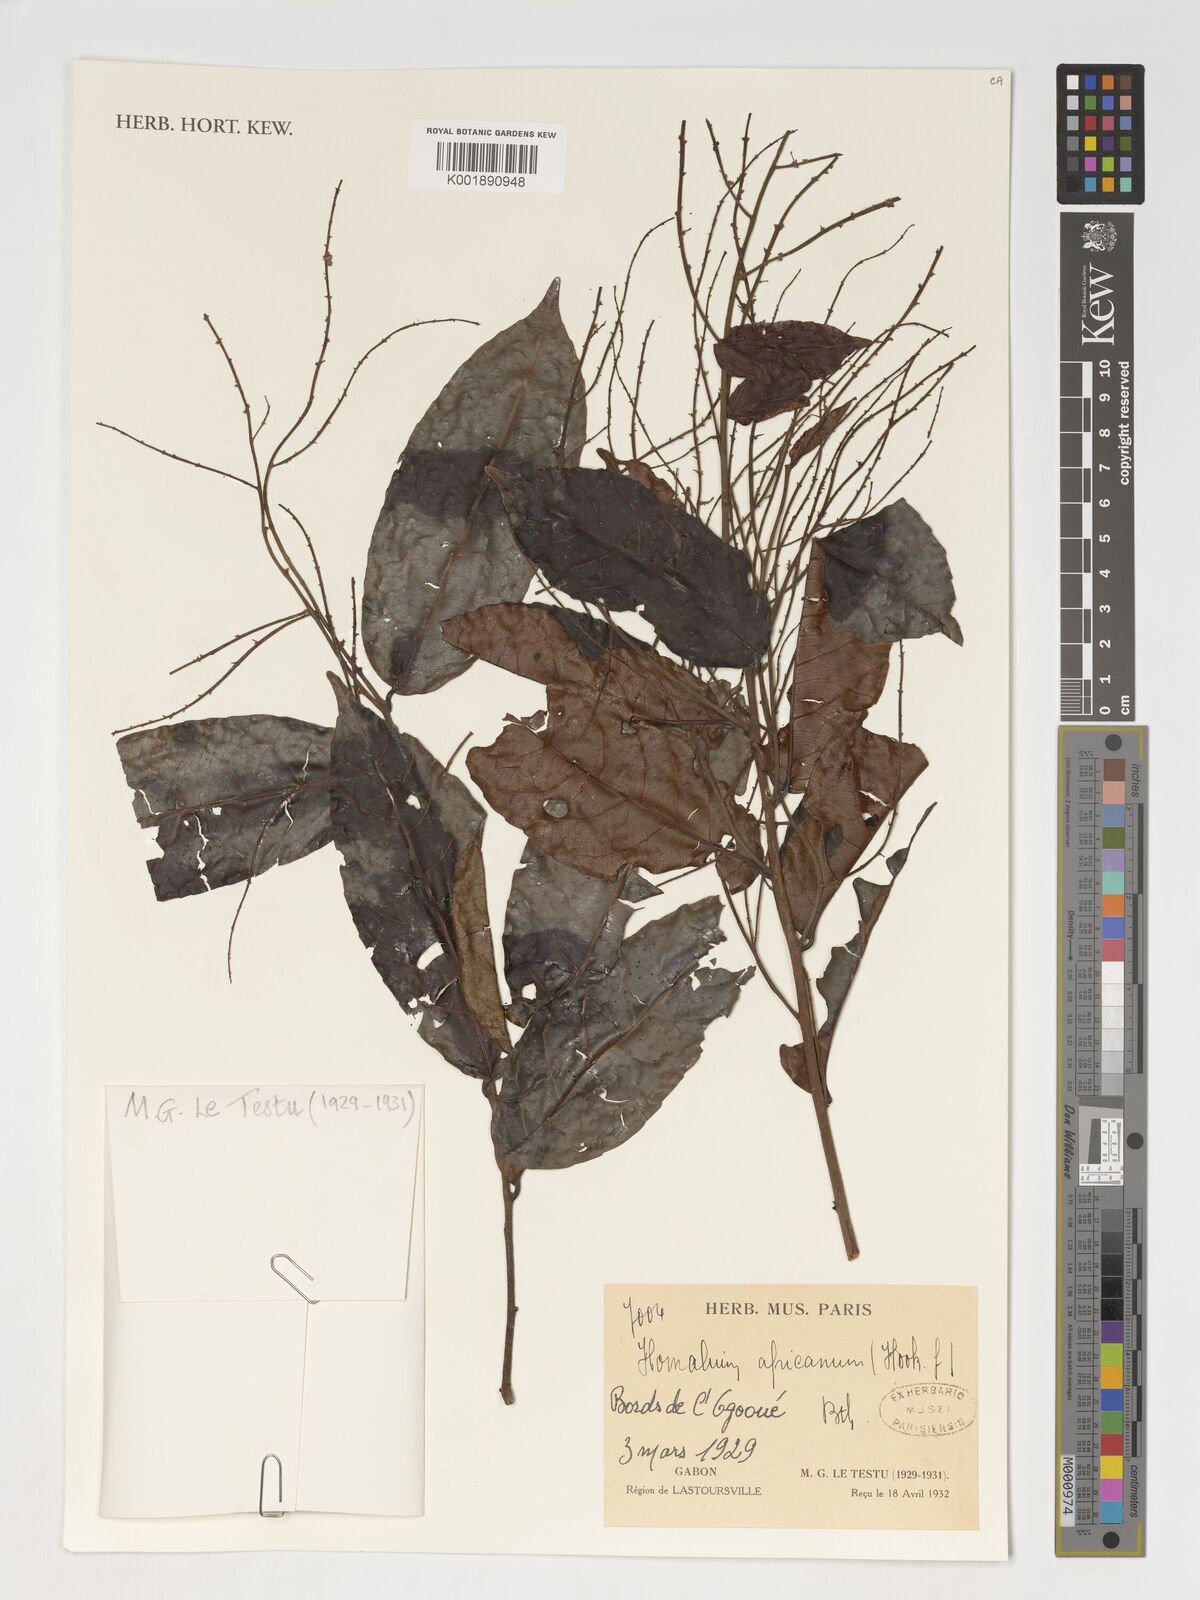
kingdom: Plantae
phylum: Tracheophyta
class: Magnoliopsida
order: Malpighiales
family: Salicaceae
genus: Homalium
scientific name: Homalium africanum
